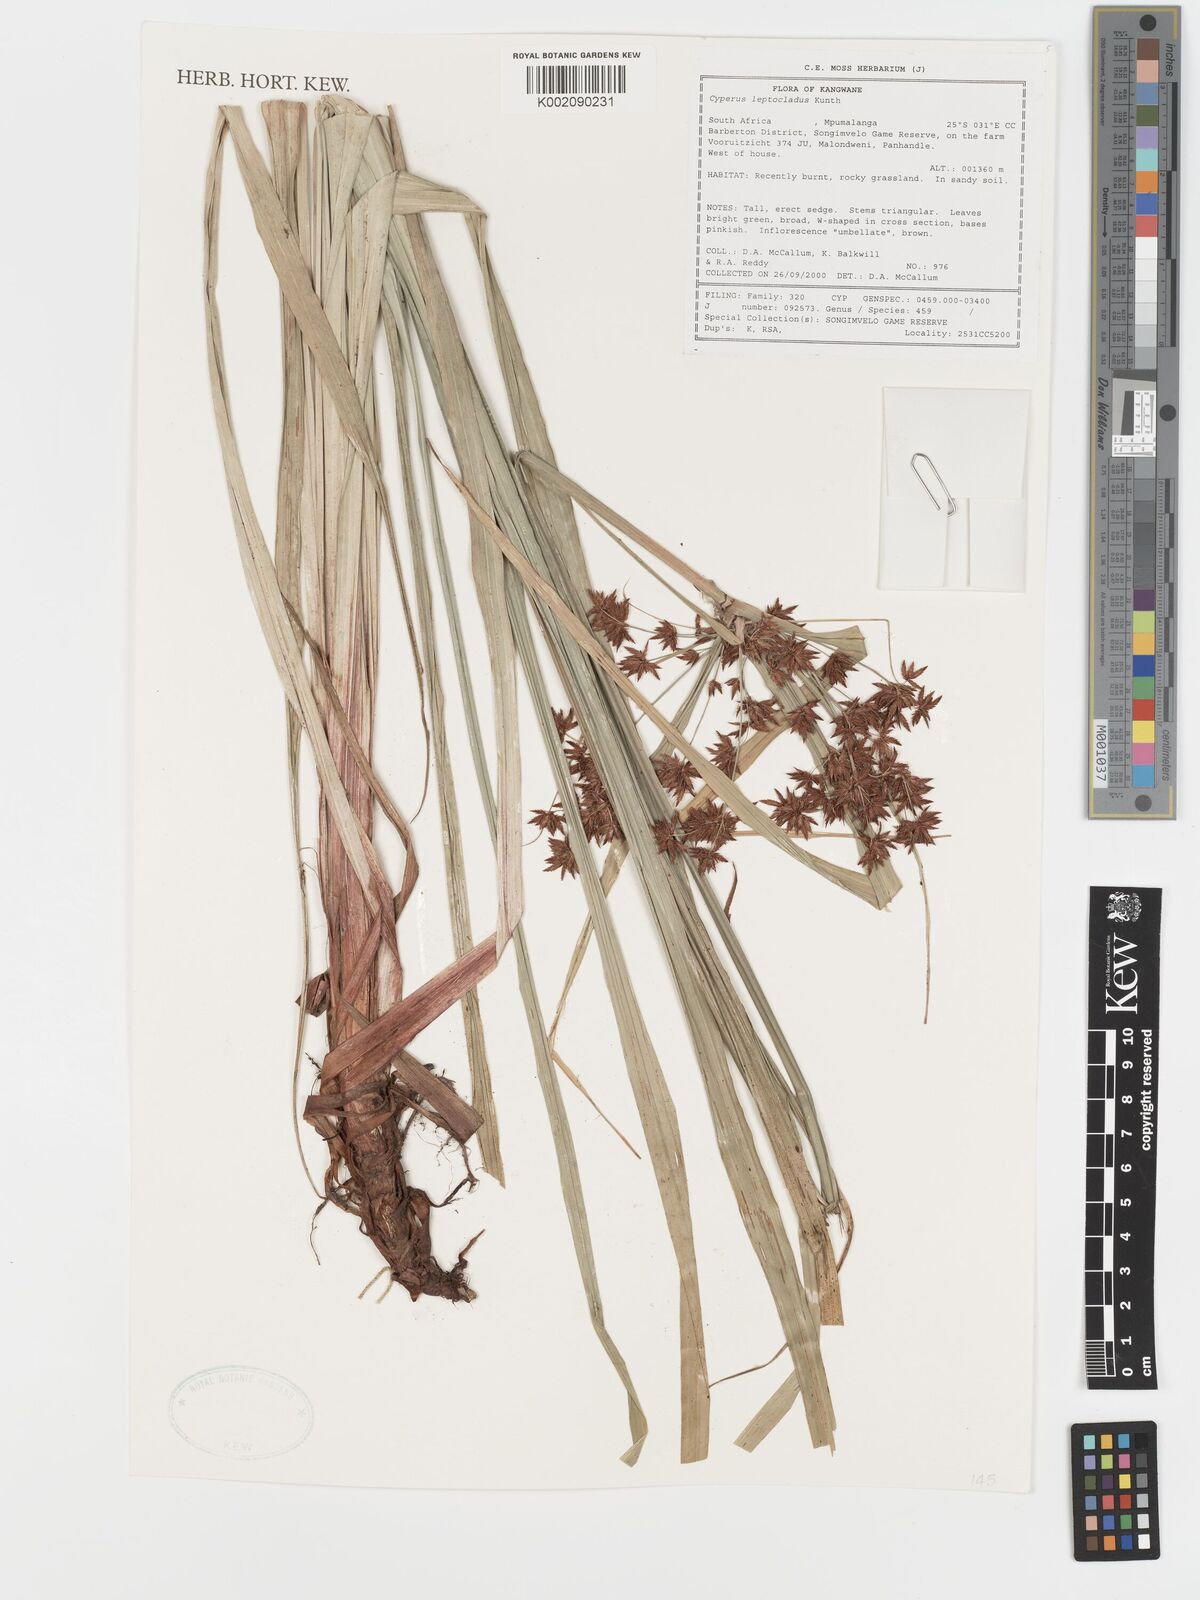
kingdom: Plantae
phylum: Tracheophyta
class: Liliopsida
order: Poales
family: Cyperaceae
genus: Cyperus
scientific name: Cyperus leptocladus
